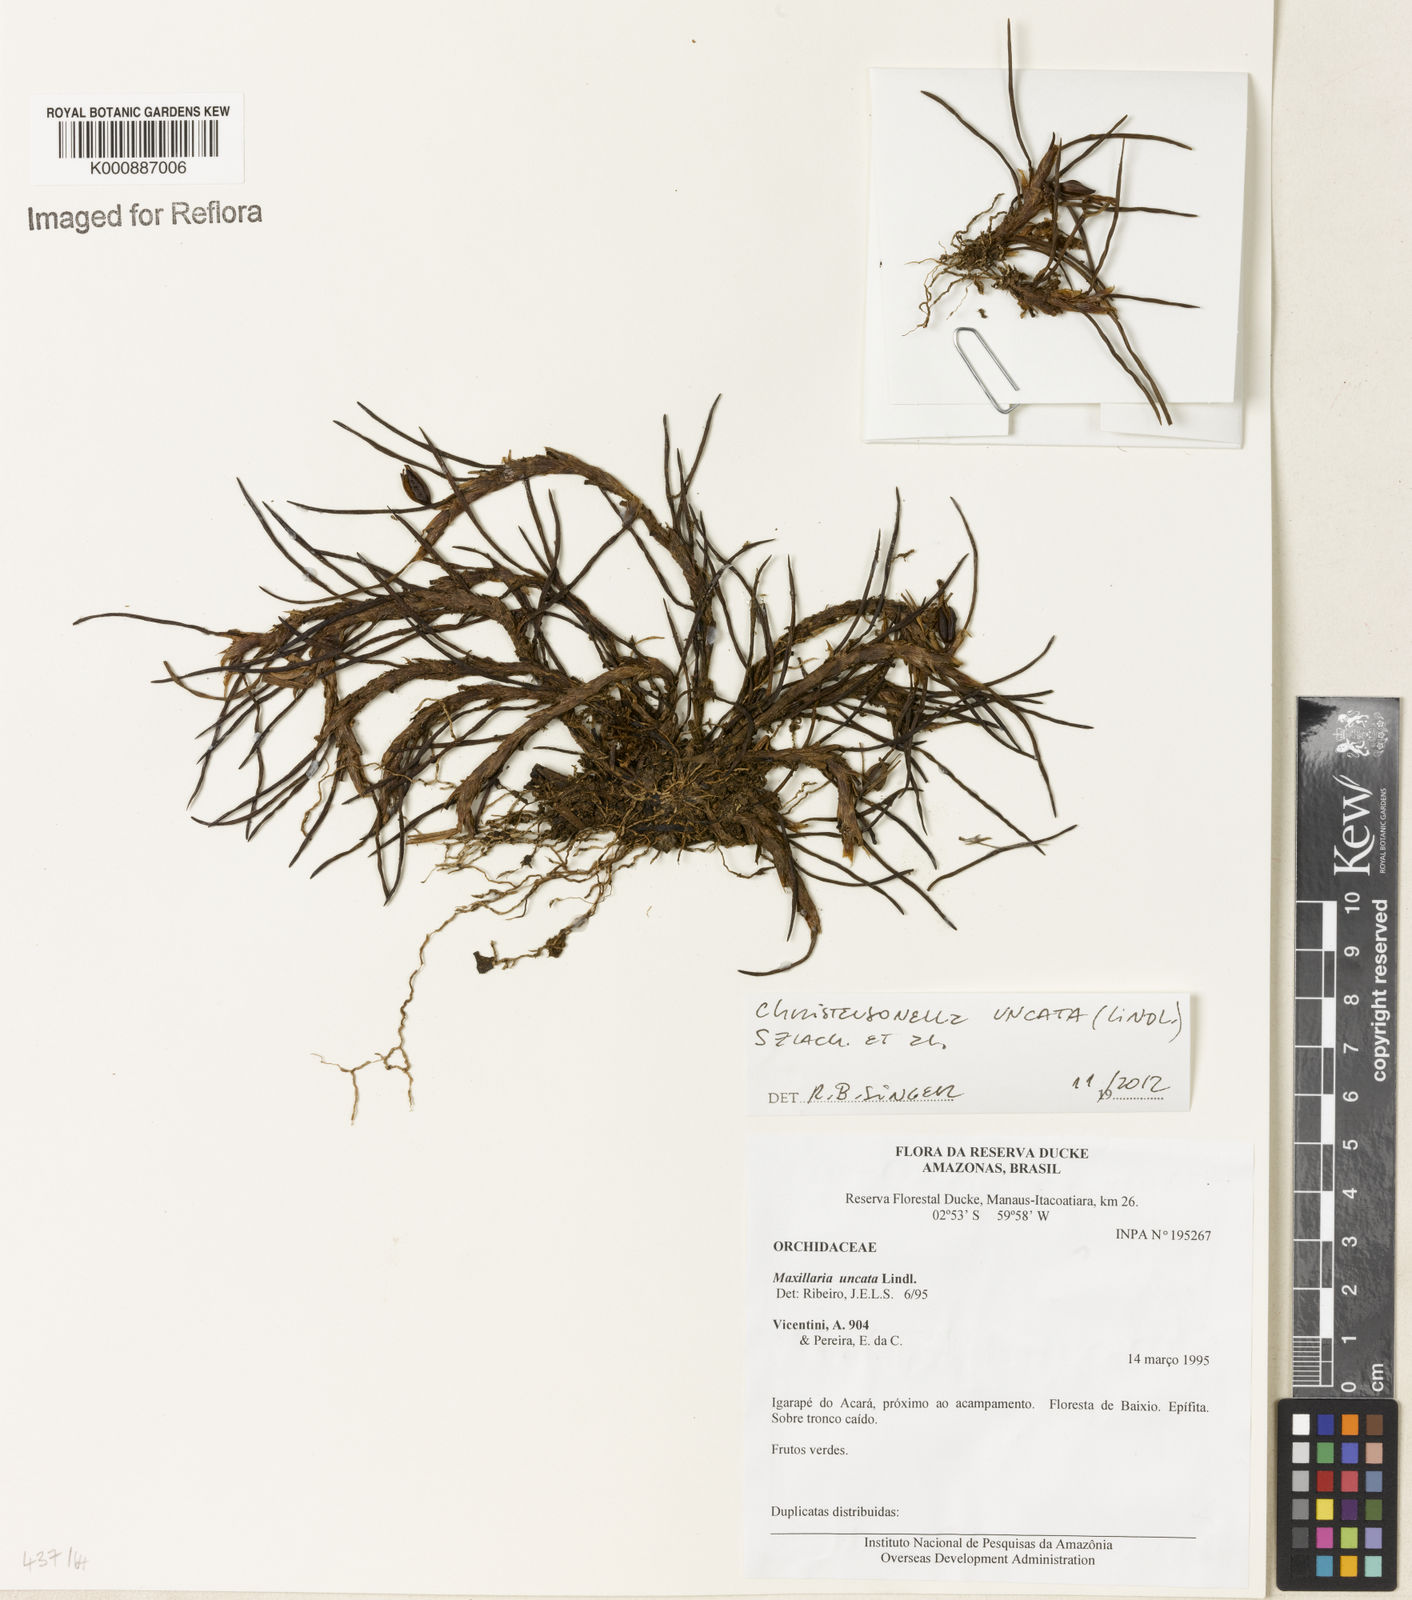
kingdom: Plantae
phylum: Tracheophyta
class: Liliopsida
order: Asparagales
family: Orchidaceae
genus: Maxillaria
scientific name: Maxillaria uncata
